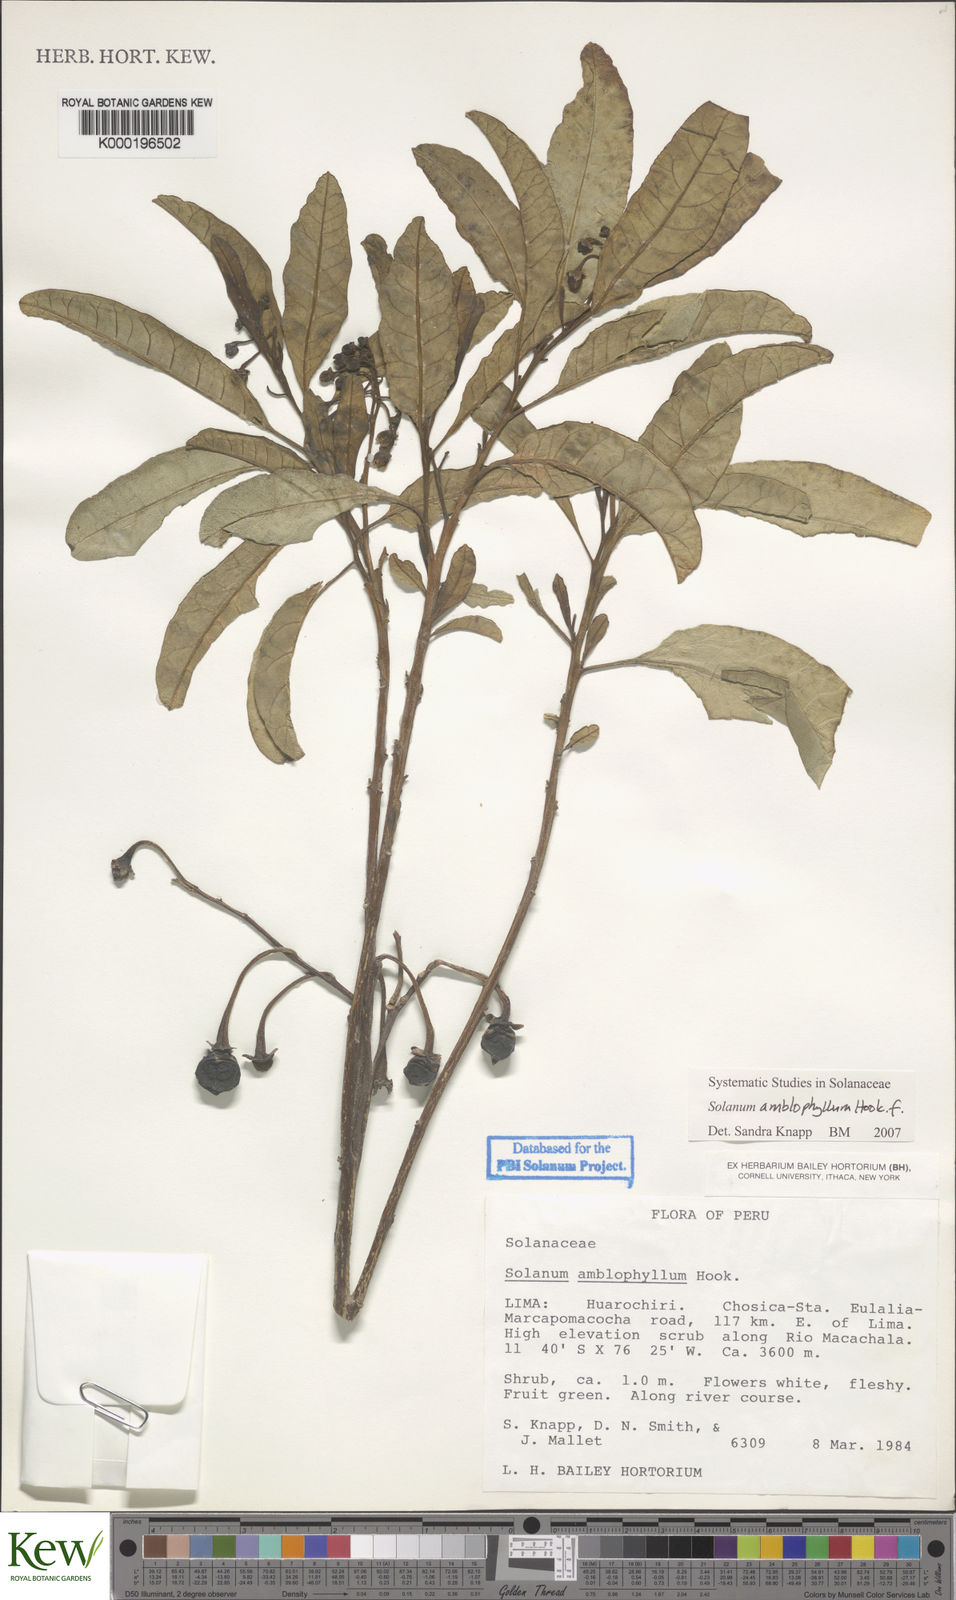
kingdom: Plantae
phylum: Tracheophyta
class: Magnoliopsida
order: Solanales
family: Solanaceae
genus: Solanum
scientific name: Solanum amblophyllum
